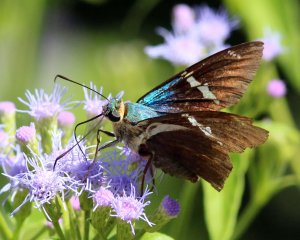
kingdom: Animalia
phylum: Arthropoda
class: Insecta
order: Lepidoptera
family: Hesperiidae
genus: Astraptes
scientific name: Astraptes fulgerator
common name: Two-barred Flasher
